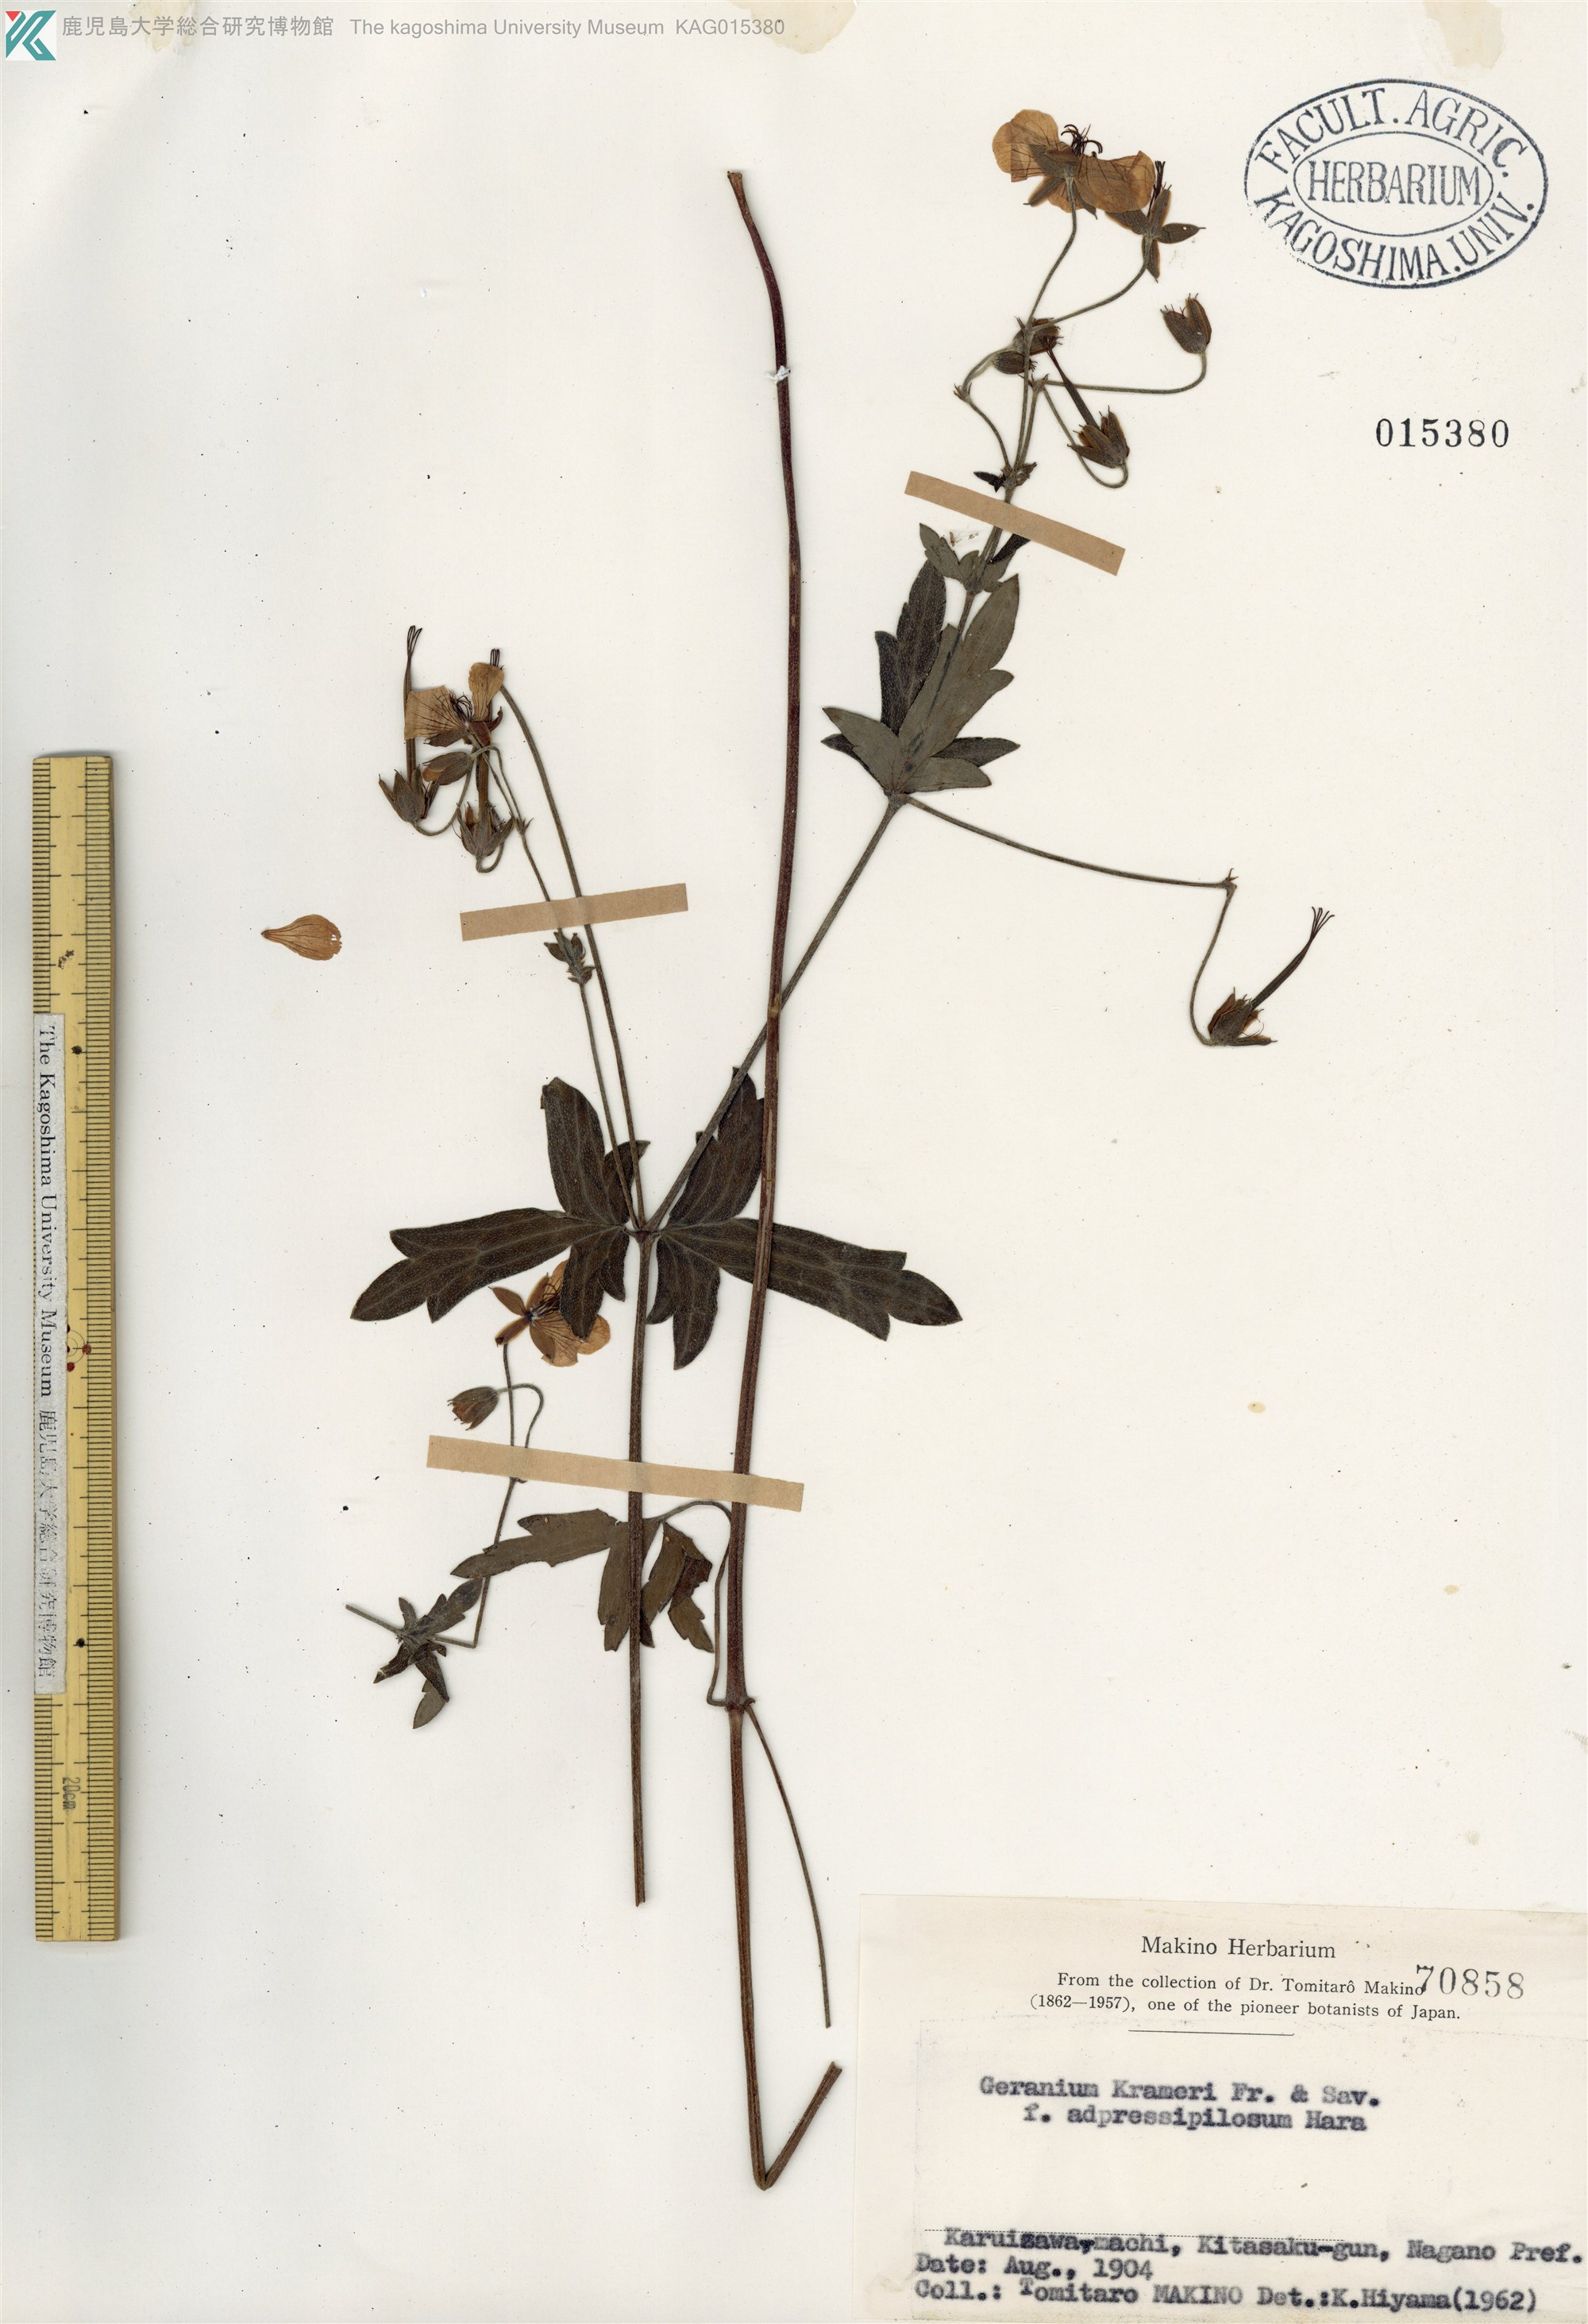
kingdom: Plantae
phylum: Tracheophyta
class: Magnoliopsida
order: Geraniales
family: Geraniaceae
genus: Geranium
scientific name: Geranium krameri
